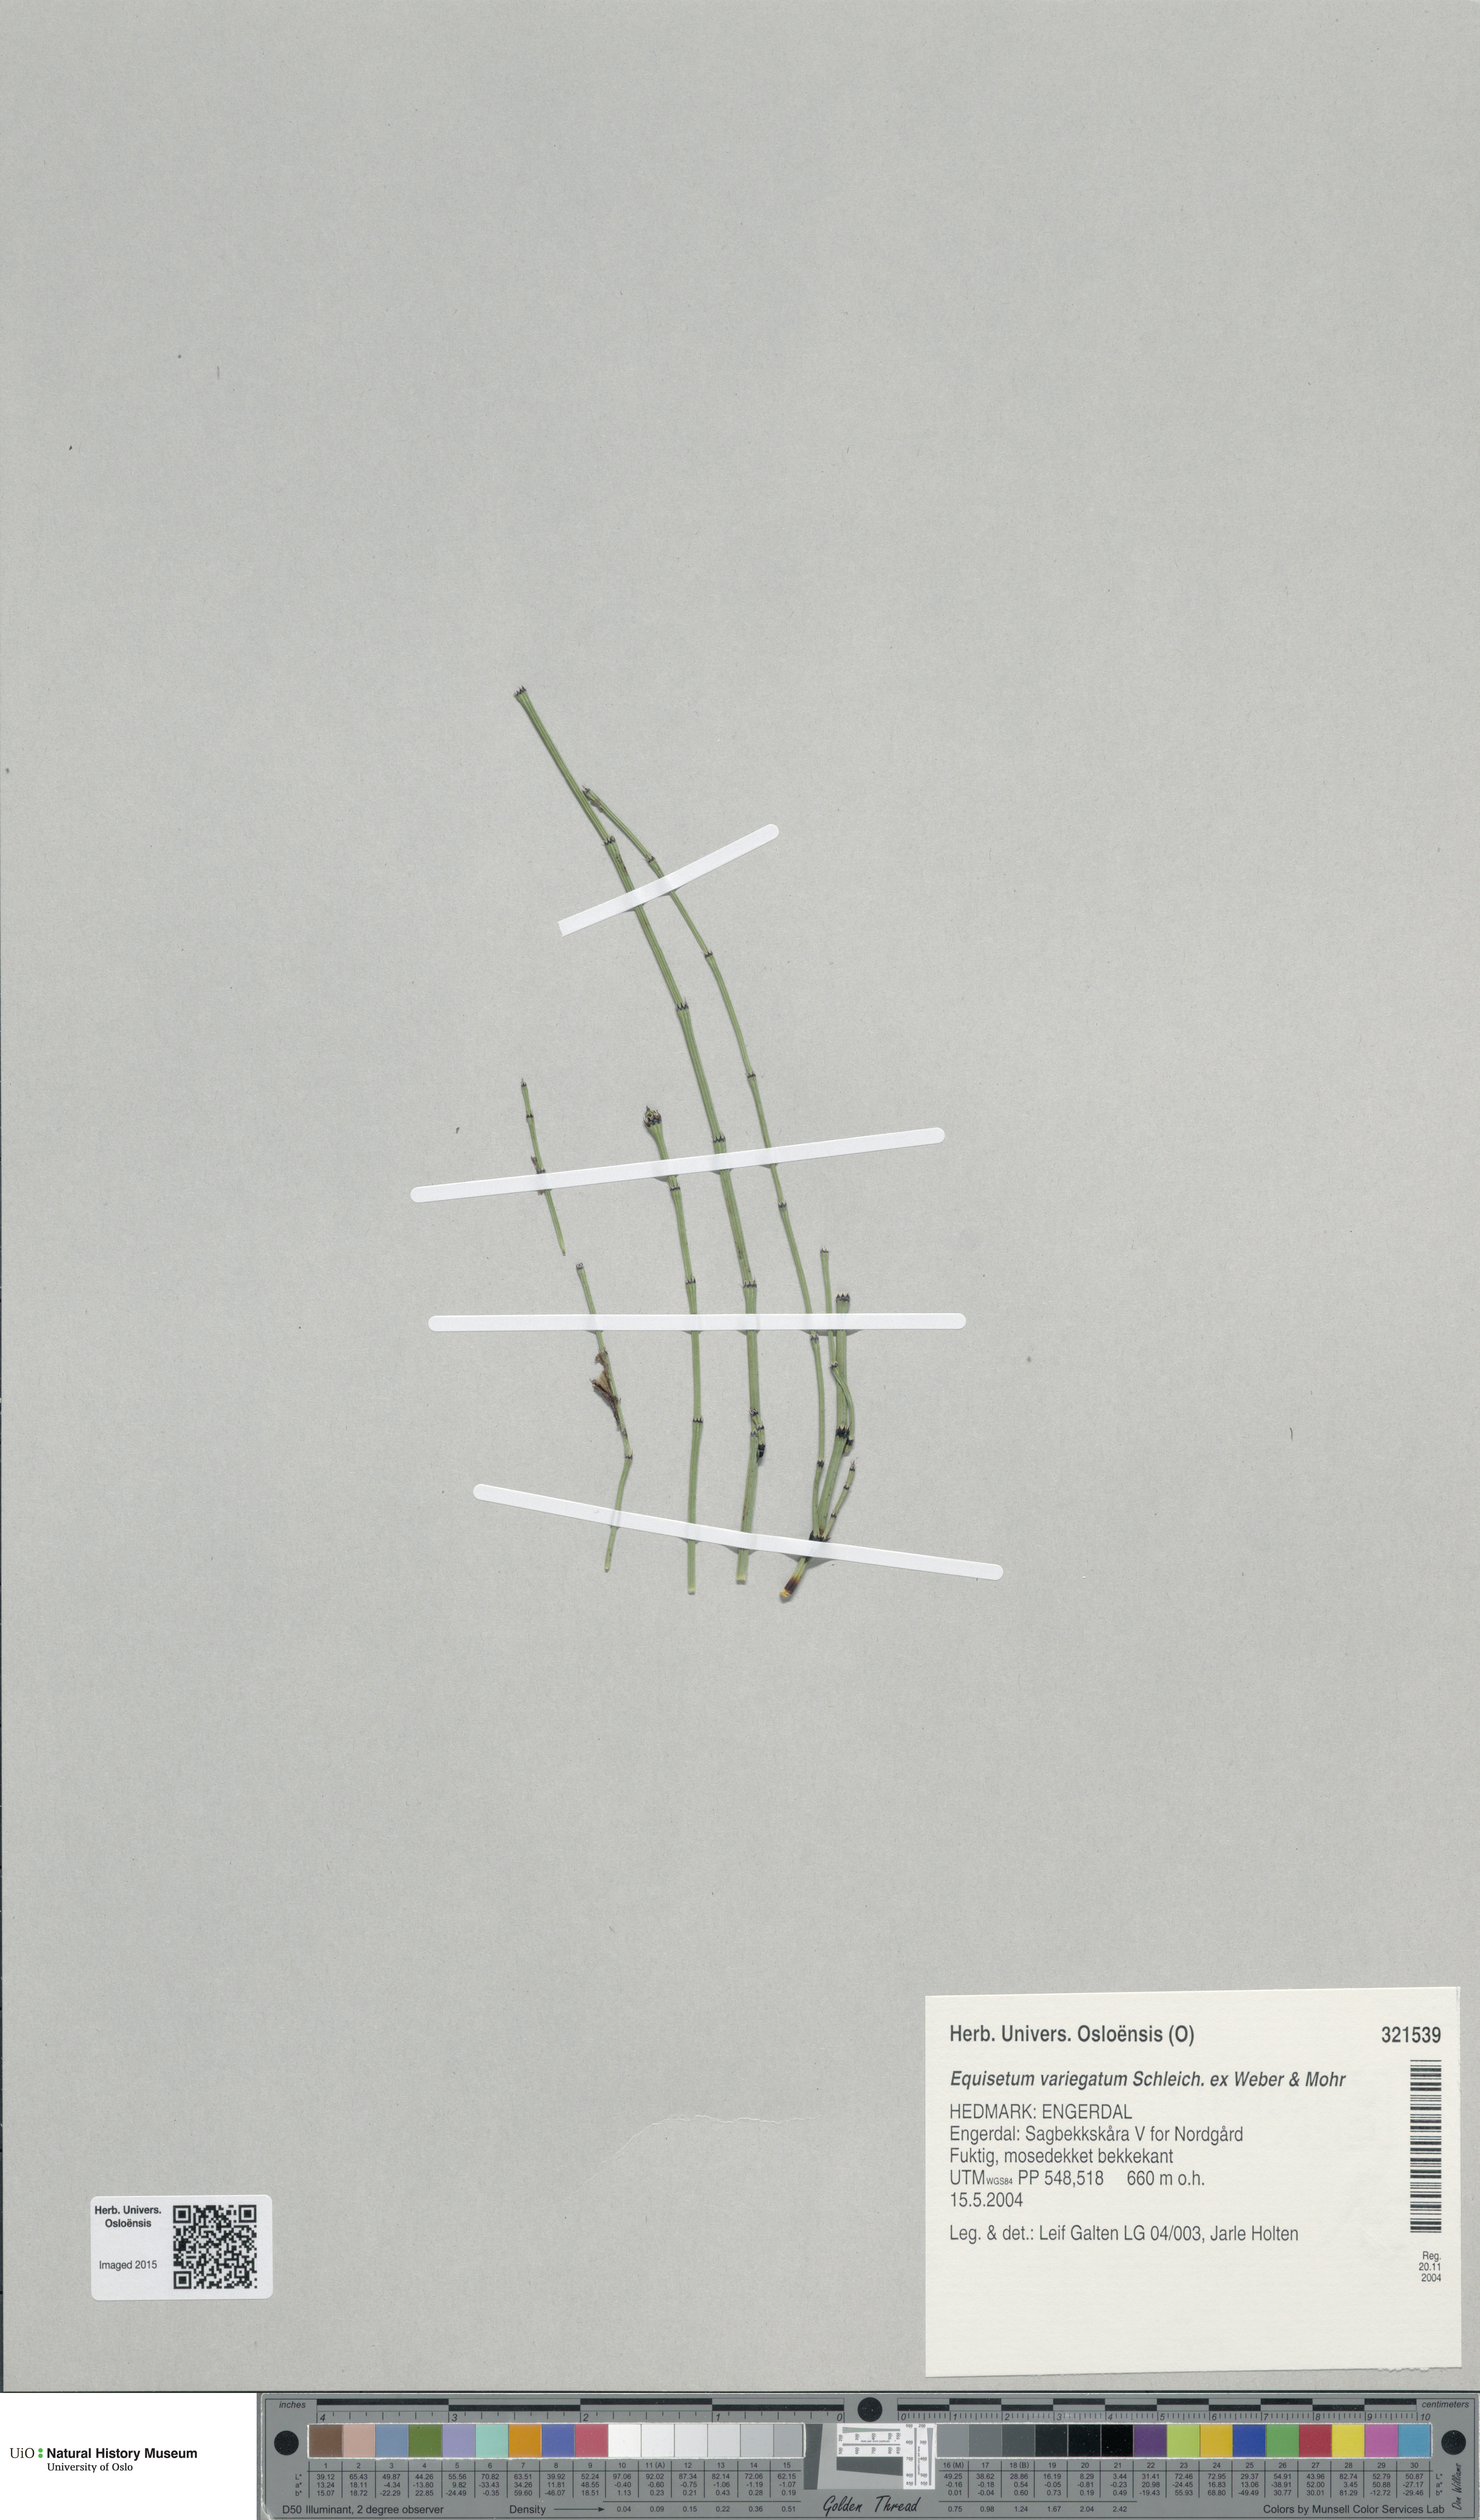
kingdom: Plantae
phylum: Tracheophyta
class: Polypodiopsida
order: Equisetales
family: Equisetaceae
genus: Equisetum
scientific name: Equisetum variegatum
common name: Variegated horsetail
